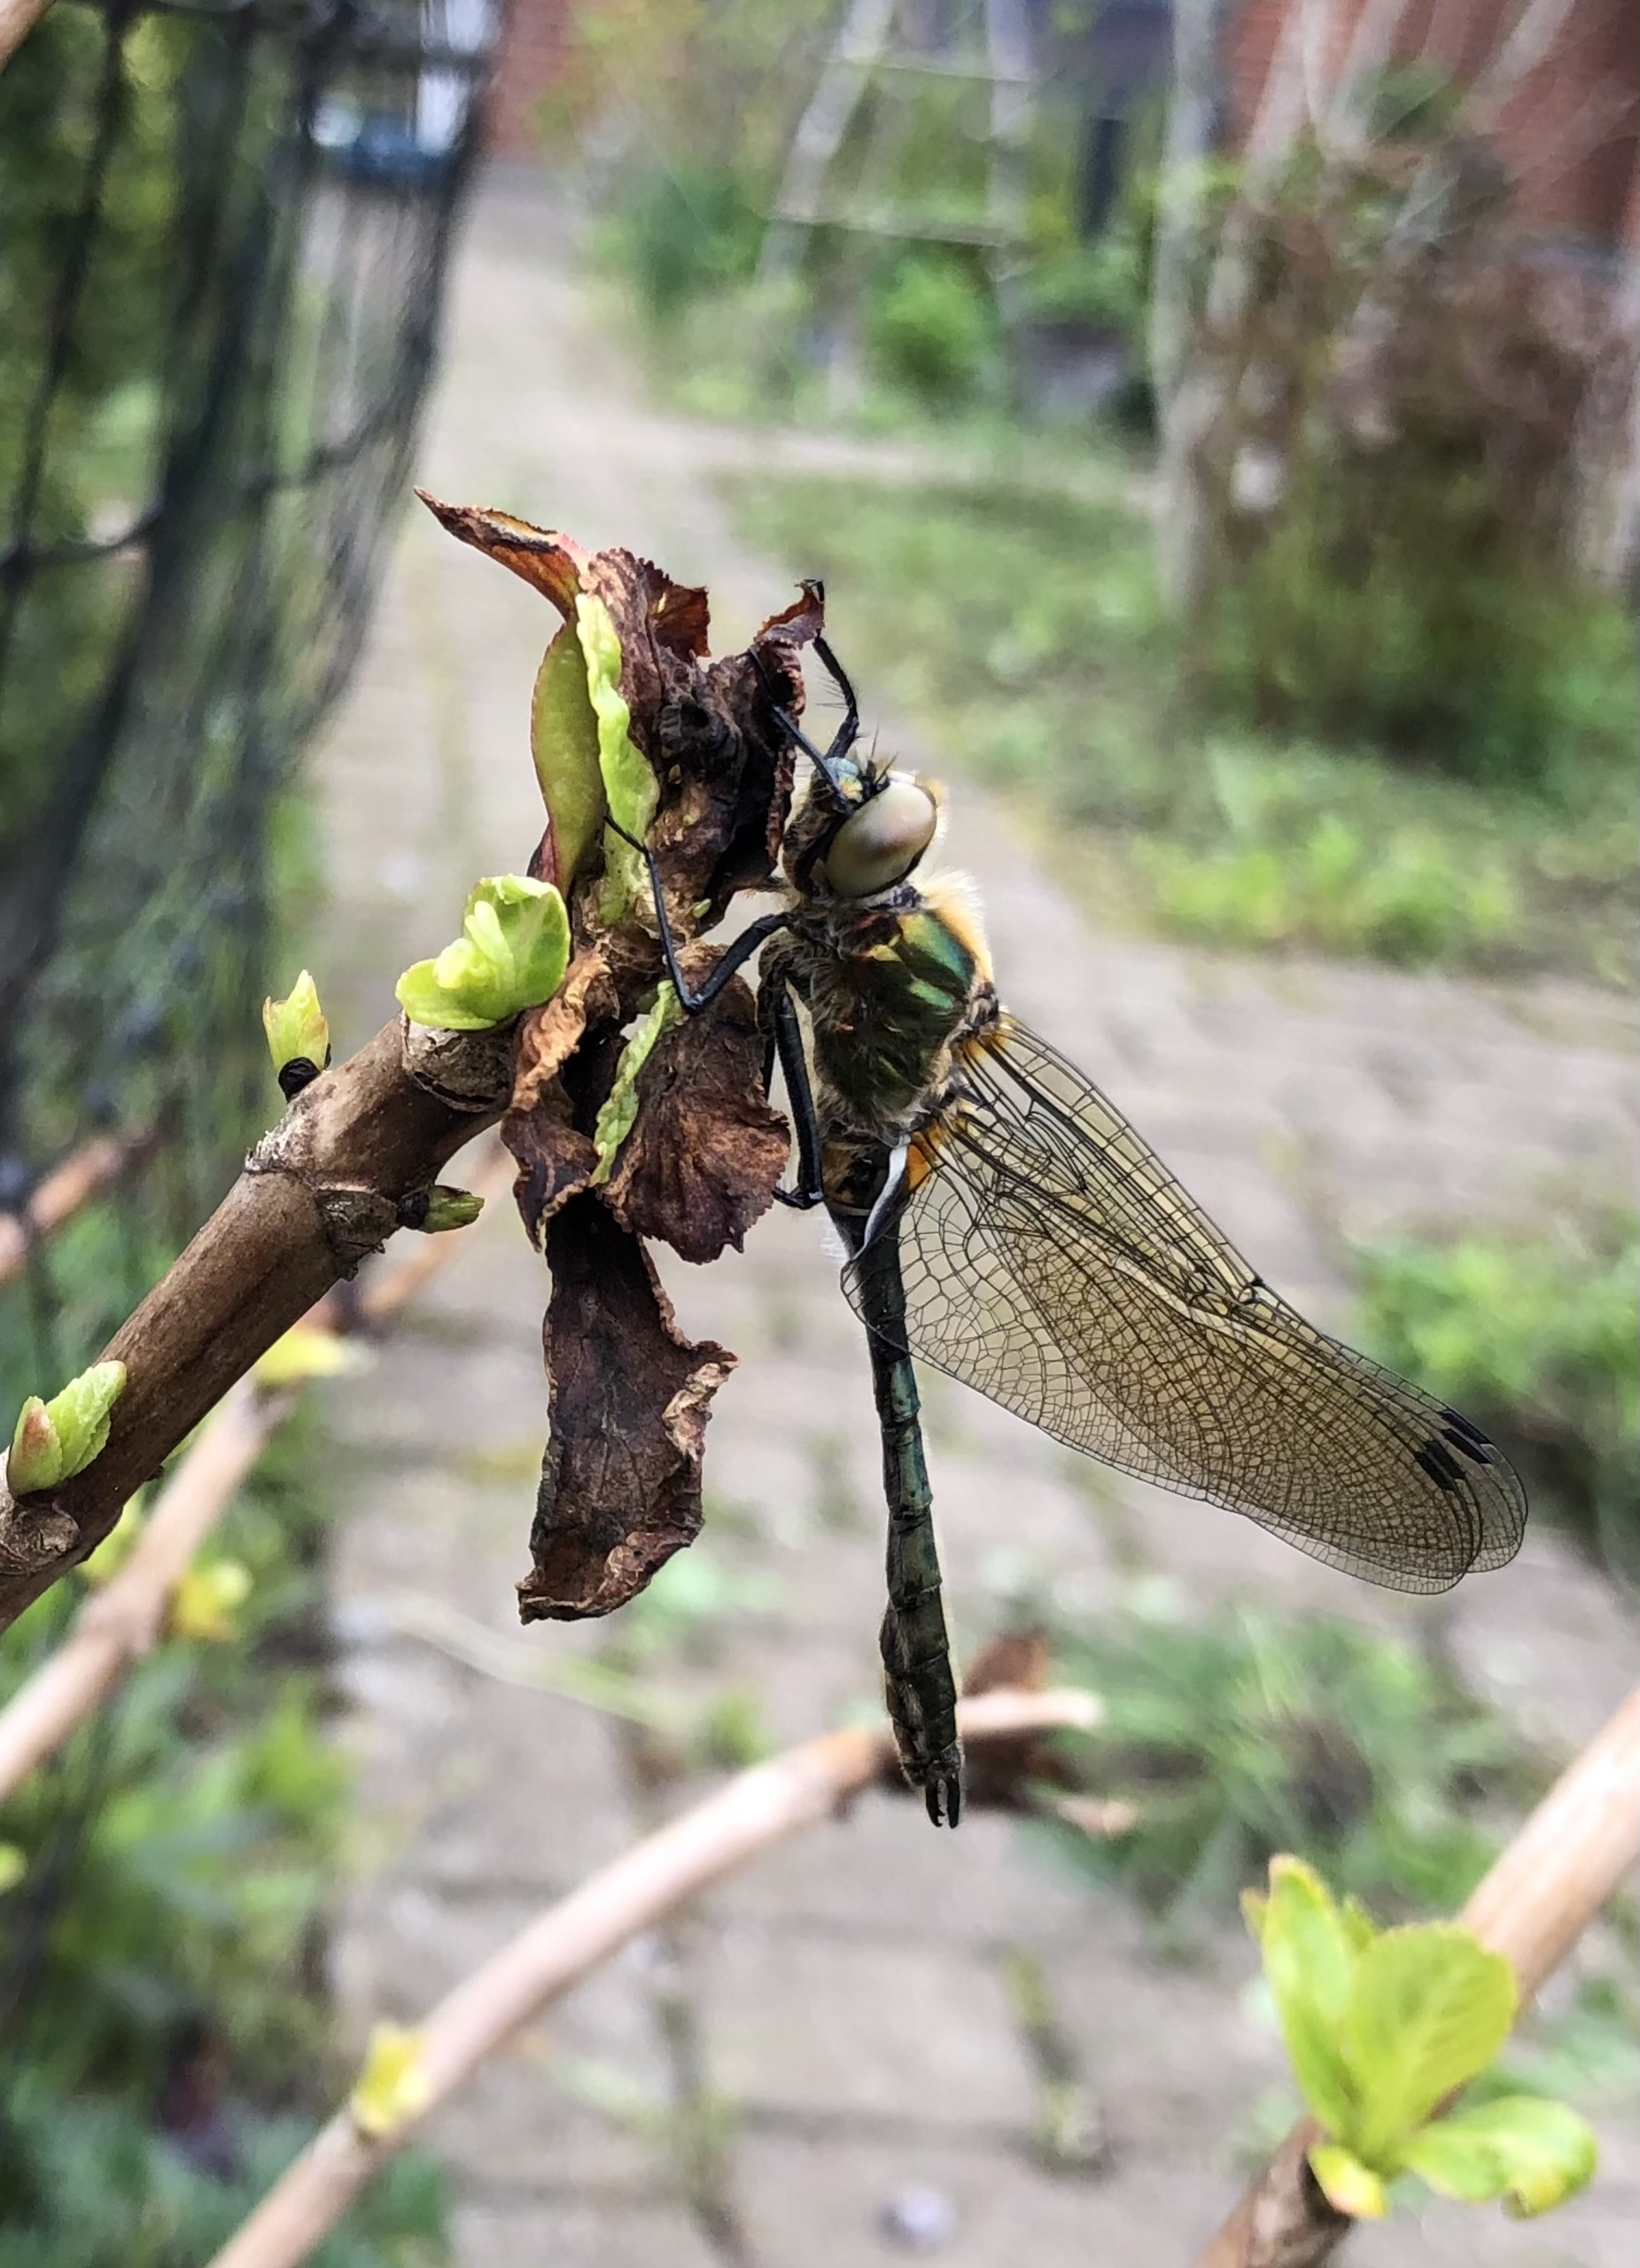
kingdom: Animalia
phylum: Arthropoda
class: Insecta
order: Odonata
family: Corduliidae
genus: Cordulia
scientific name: Cordulia aenea
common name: Grøn smaragdlibel
